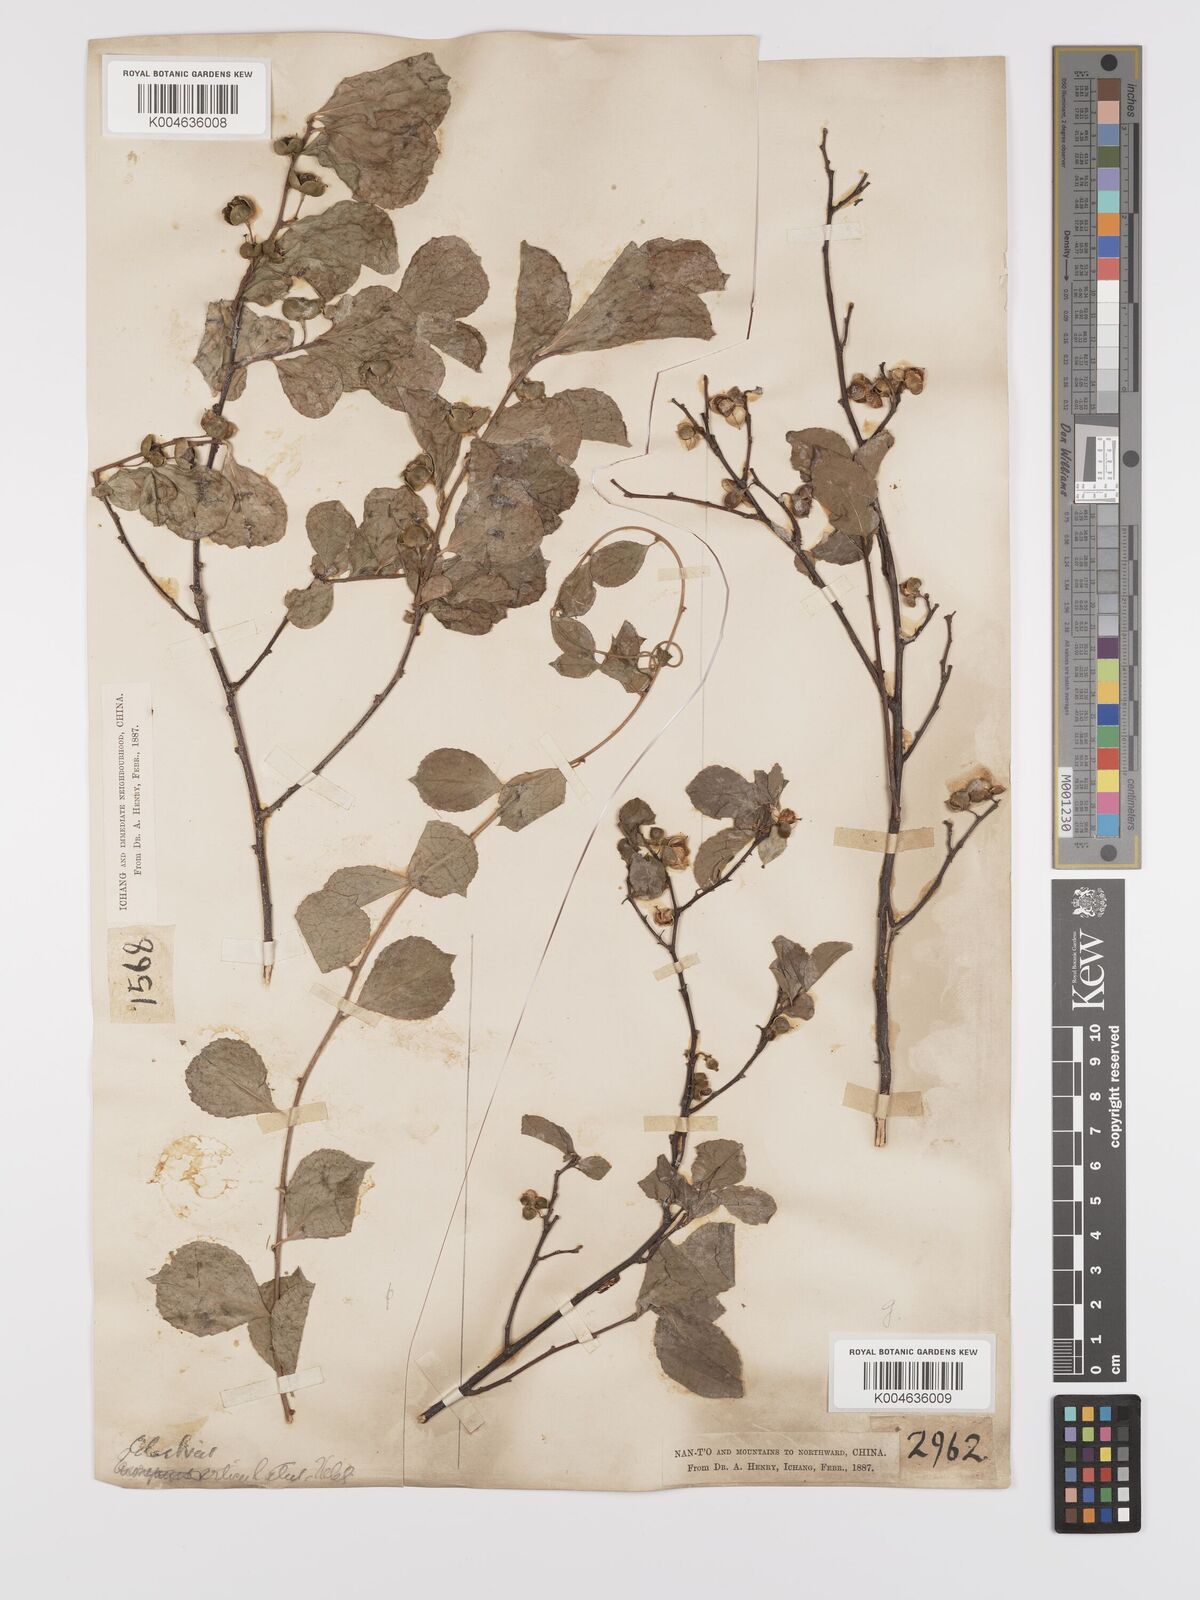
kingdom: Plantae
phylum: Tracheophyta
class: Magnoliopsida
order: Celastrales
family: Celastraceae
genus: Celastrus
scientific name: Celastrus orbiculatus
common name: Oriental bittersweet
